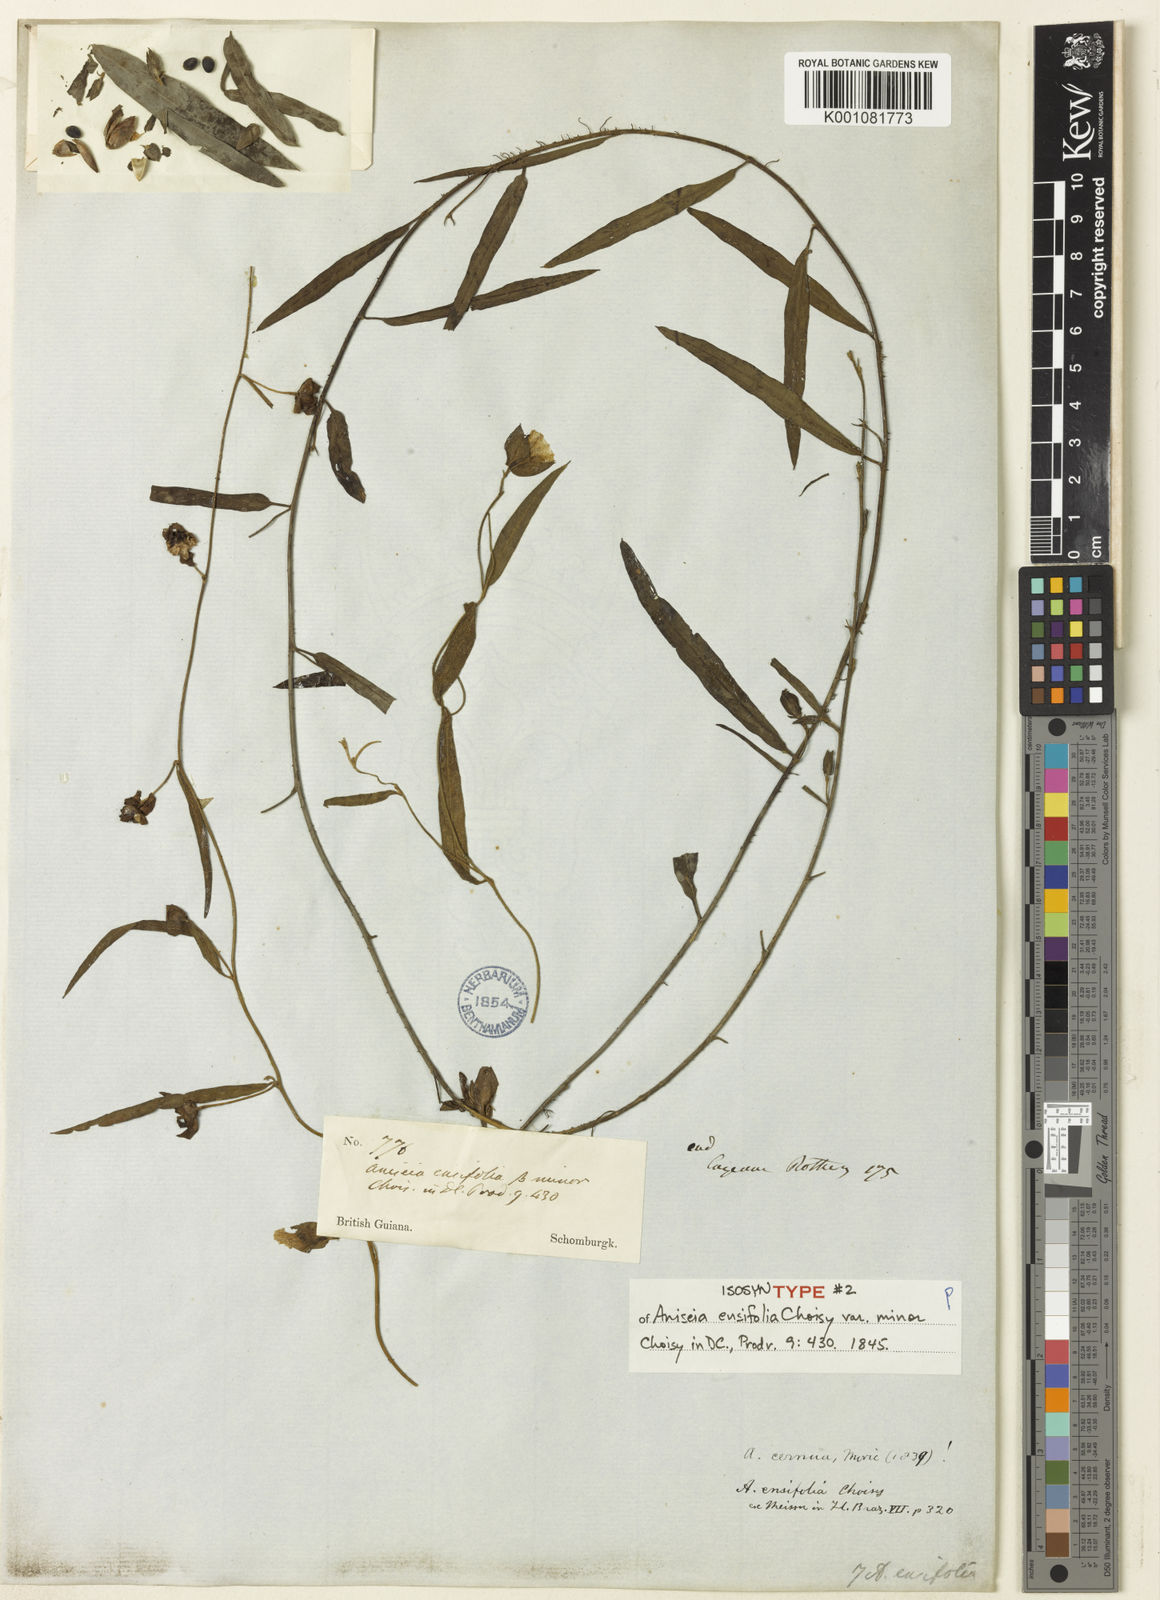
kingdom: Plantae
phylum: Tracheophyta
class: Magnoliopsida
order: Solanales
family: Convolvulaceae
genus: Aniseia
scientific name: Aniseia martinicensis
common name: Kulayadambu
